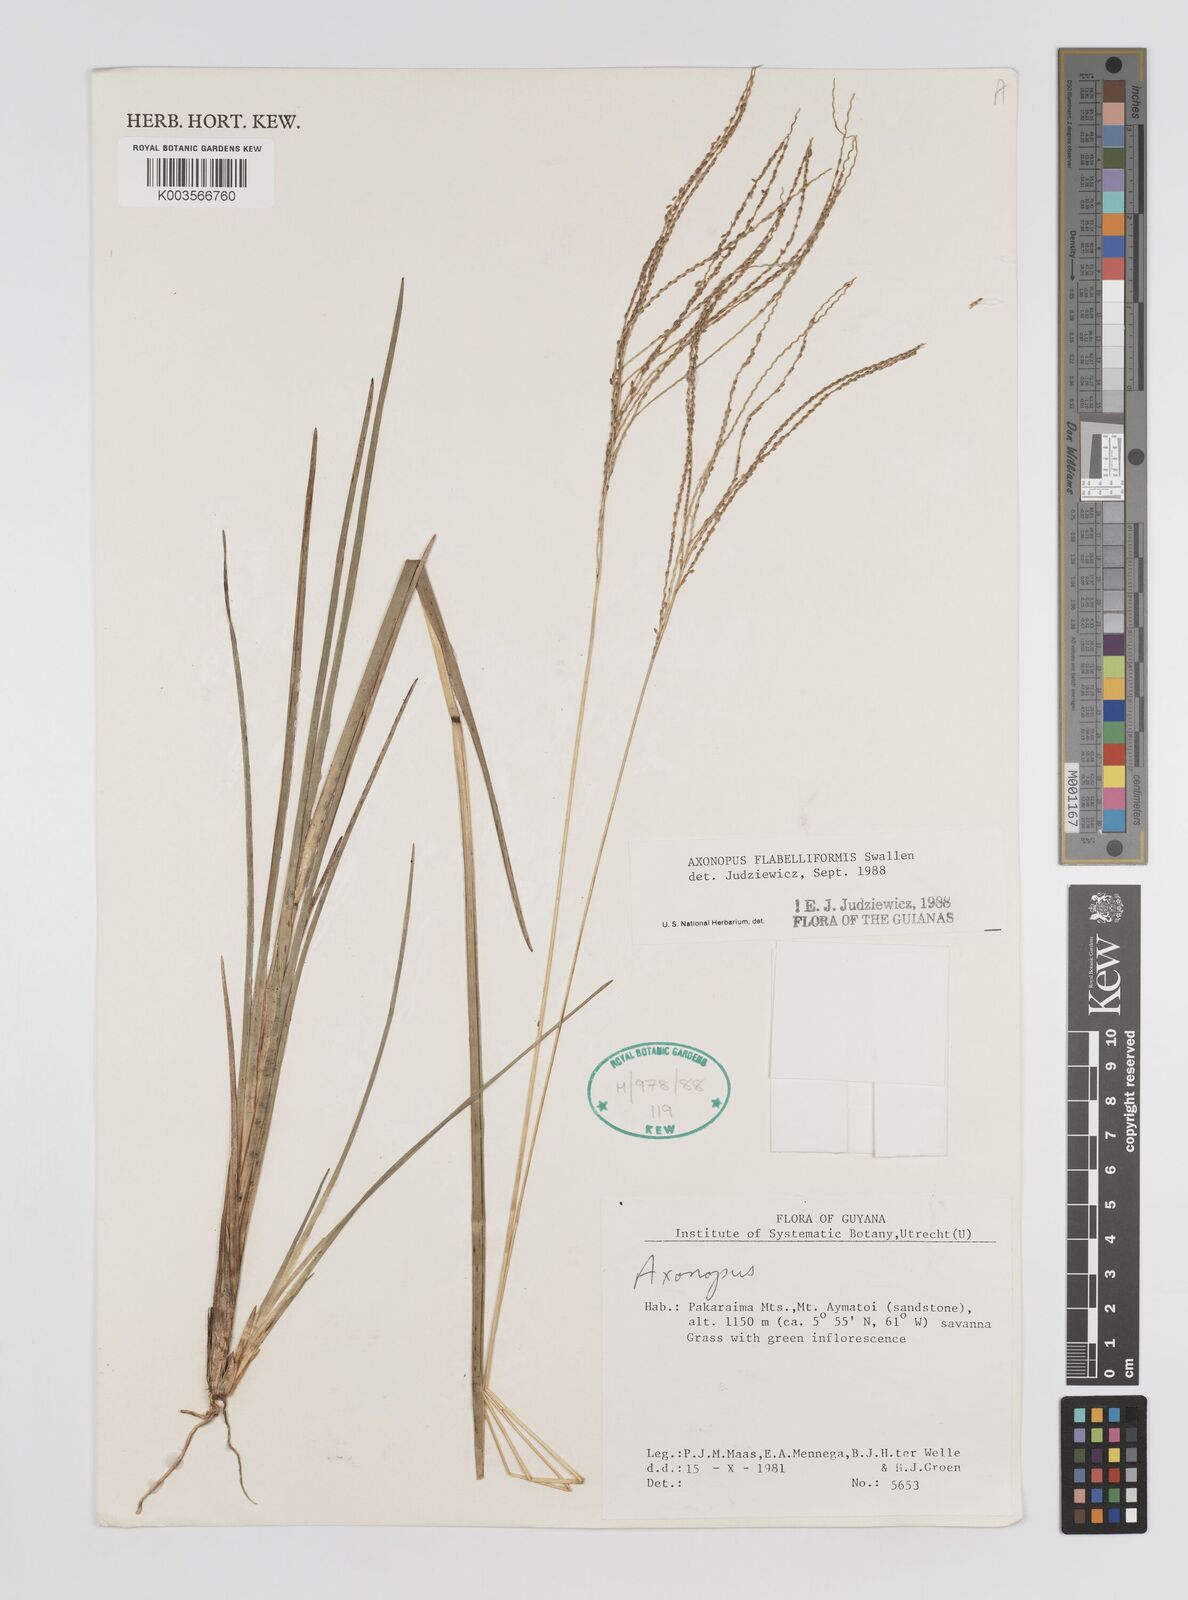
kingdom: Plantae
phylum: Tracheophyta
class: Liliopsida
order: Poales
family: Poaceae
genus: Axonopus
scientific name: Axonopus flabelliformis
